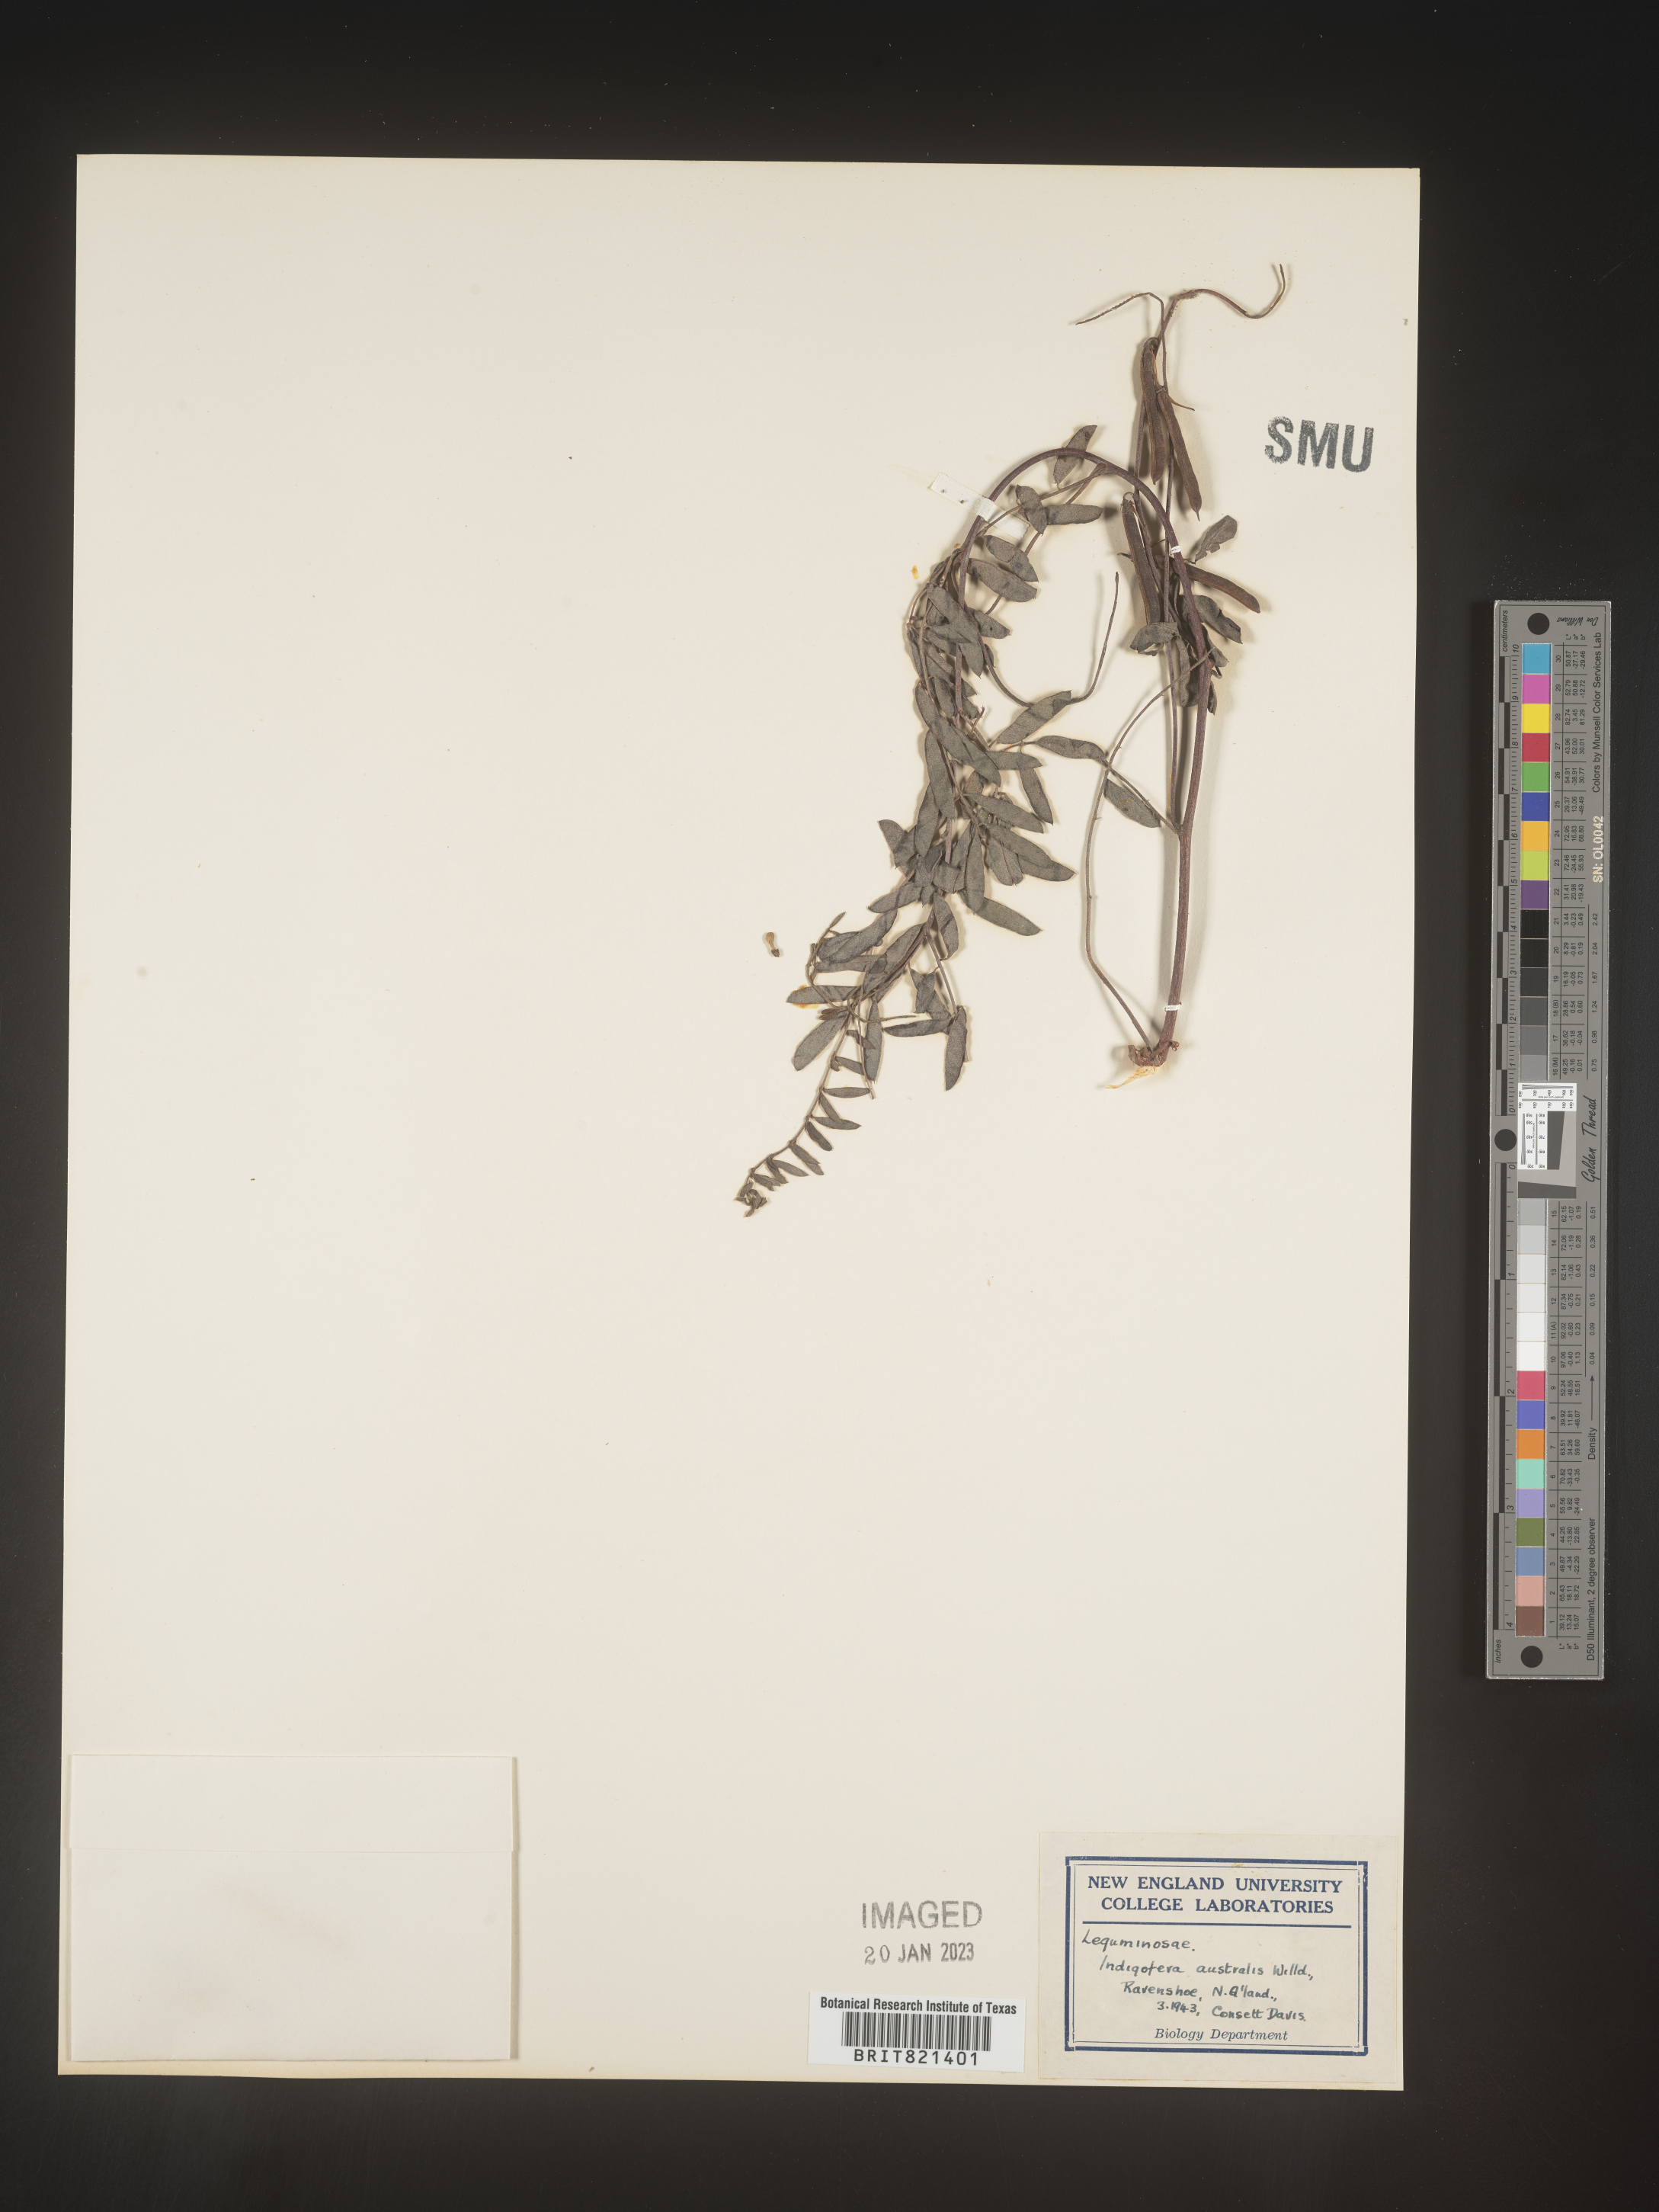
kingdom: Plantae
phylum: Tracheophyta
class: Magnoliopsida
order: Fabales
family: Fabaceae
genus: Indigofera
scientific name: Indigofera
